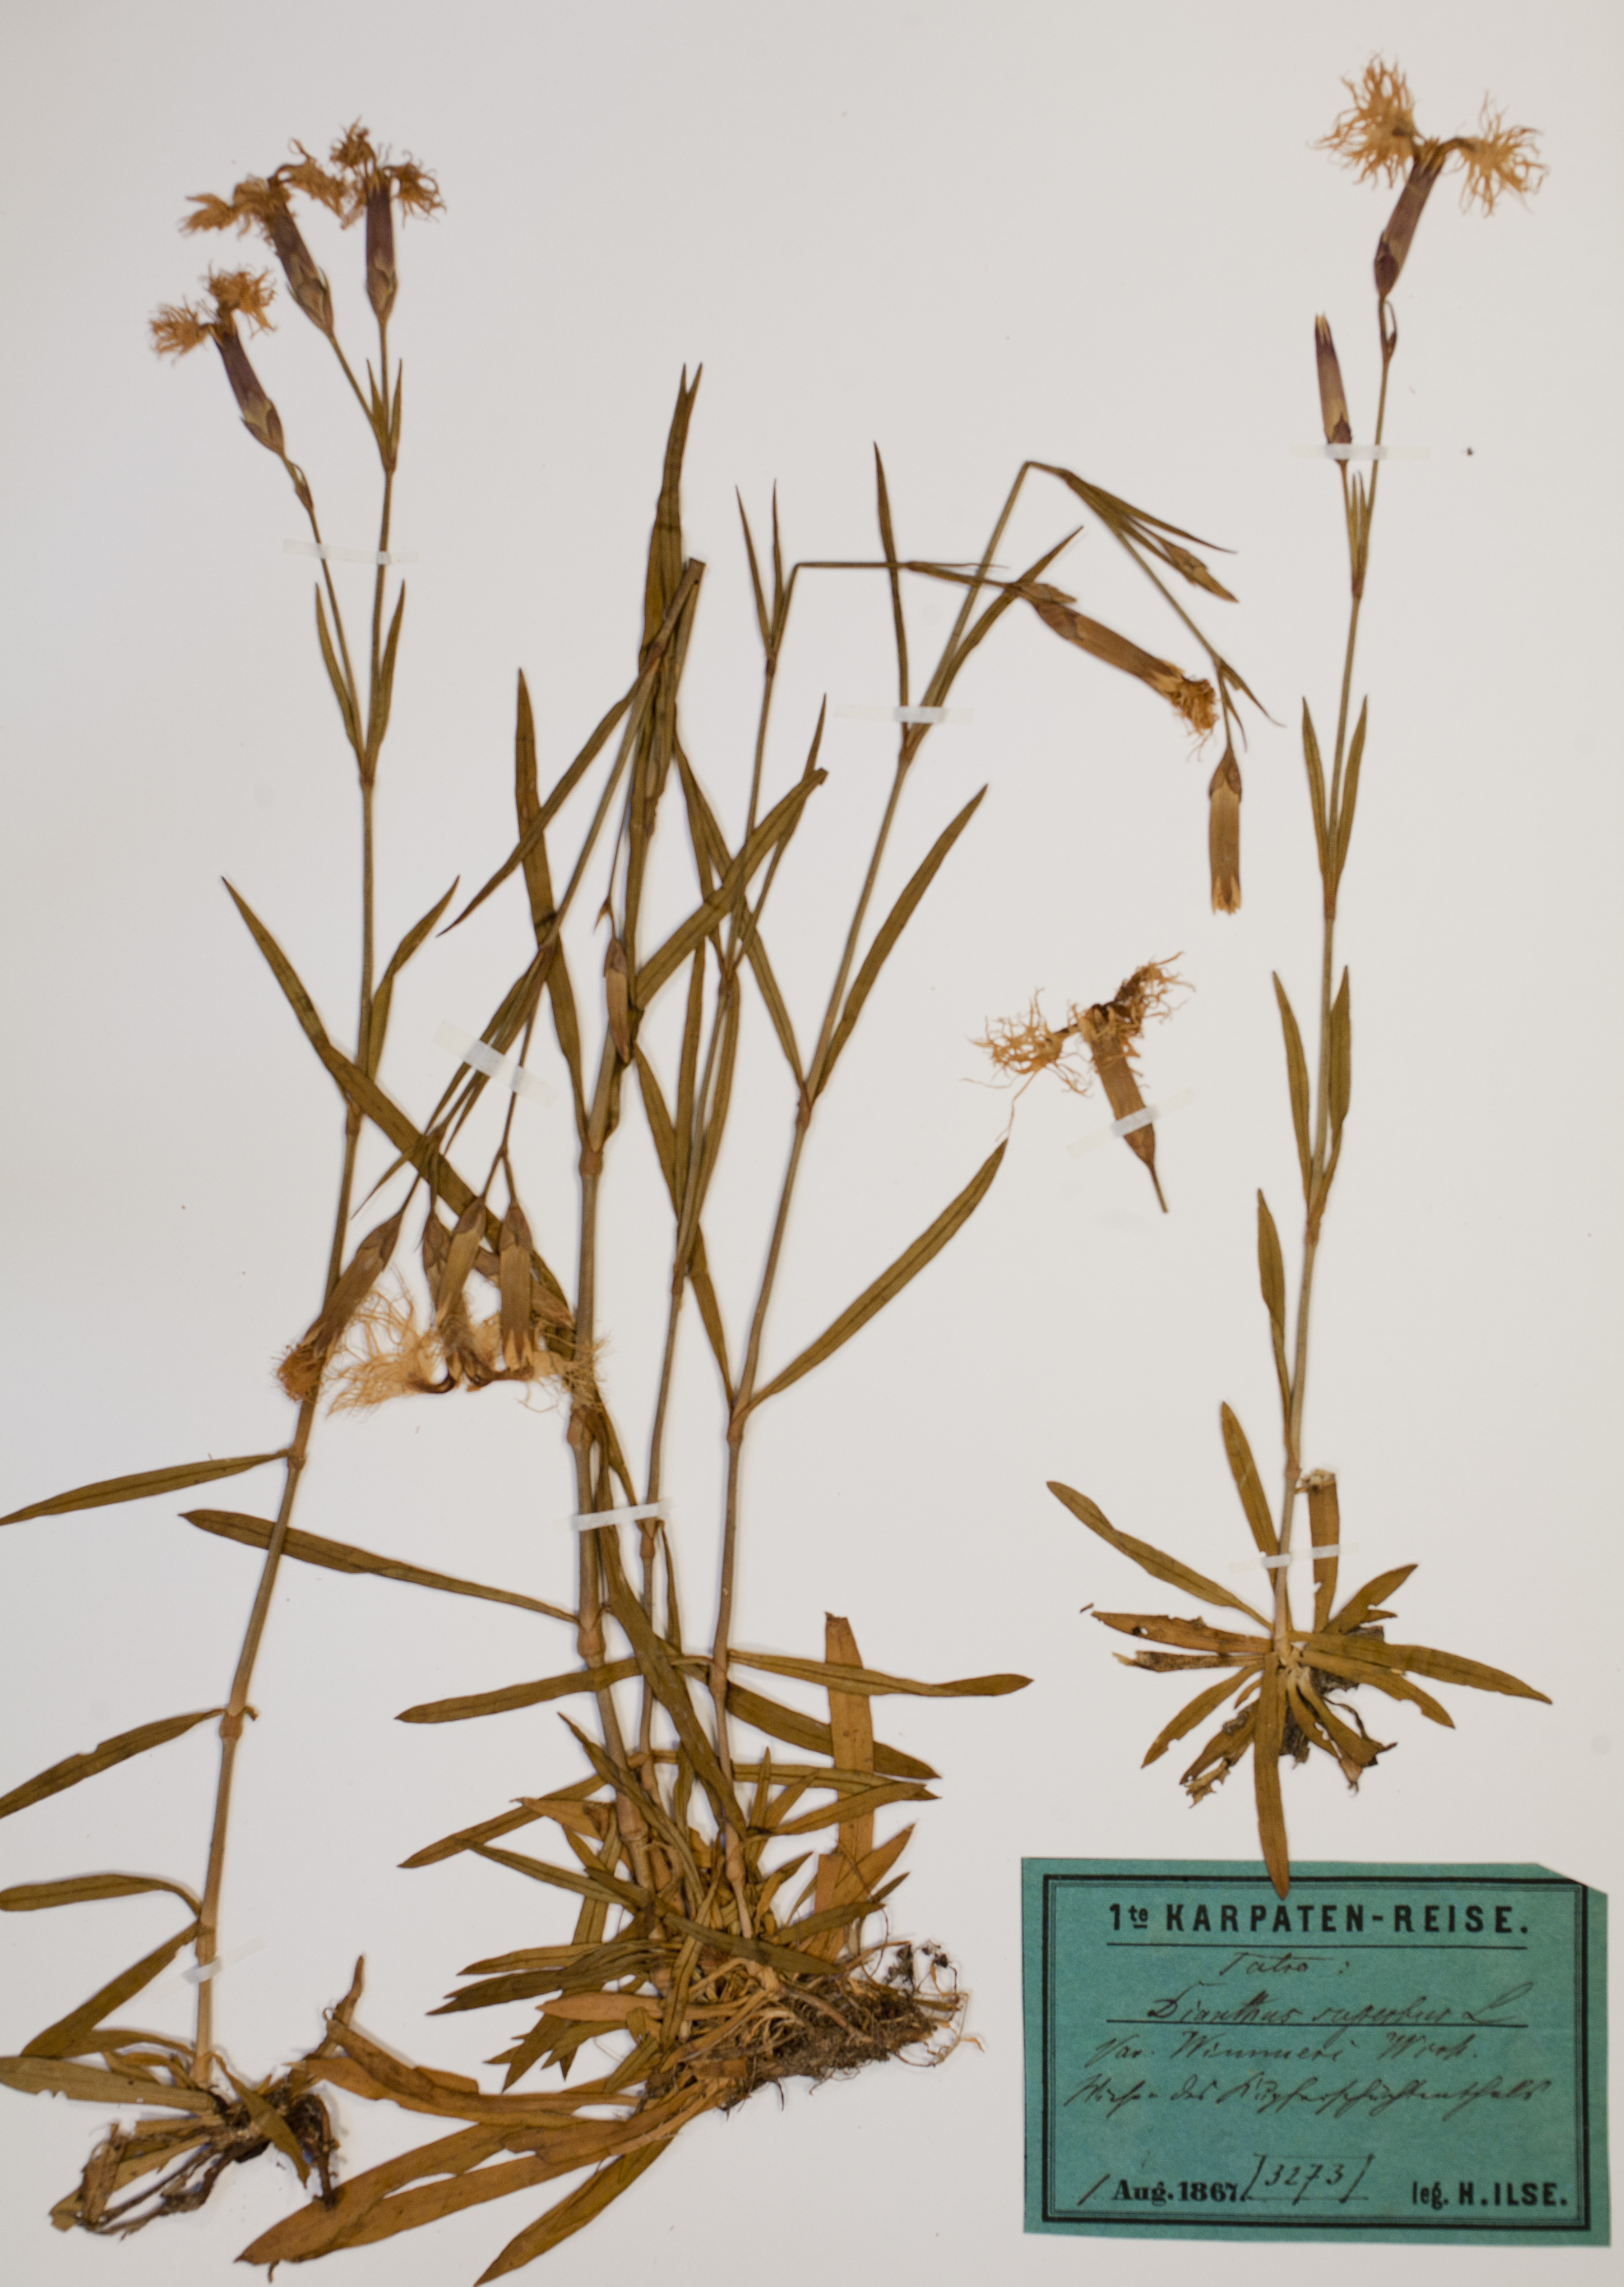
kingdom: Plantae
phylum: Tracheophyta
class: Magnoliopsida
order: Caryophyllales
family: Caryophyllaceae
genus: Dianthus
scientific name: Dianthus superbus
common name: Fringed pink
